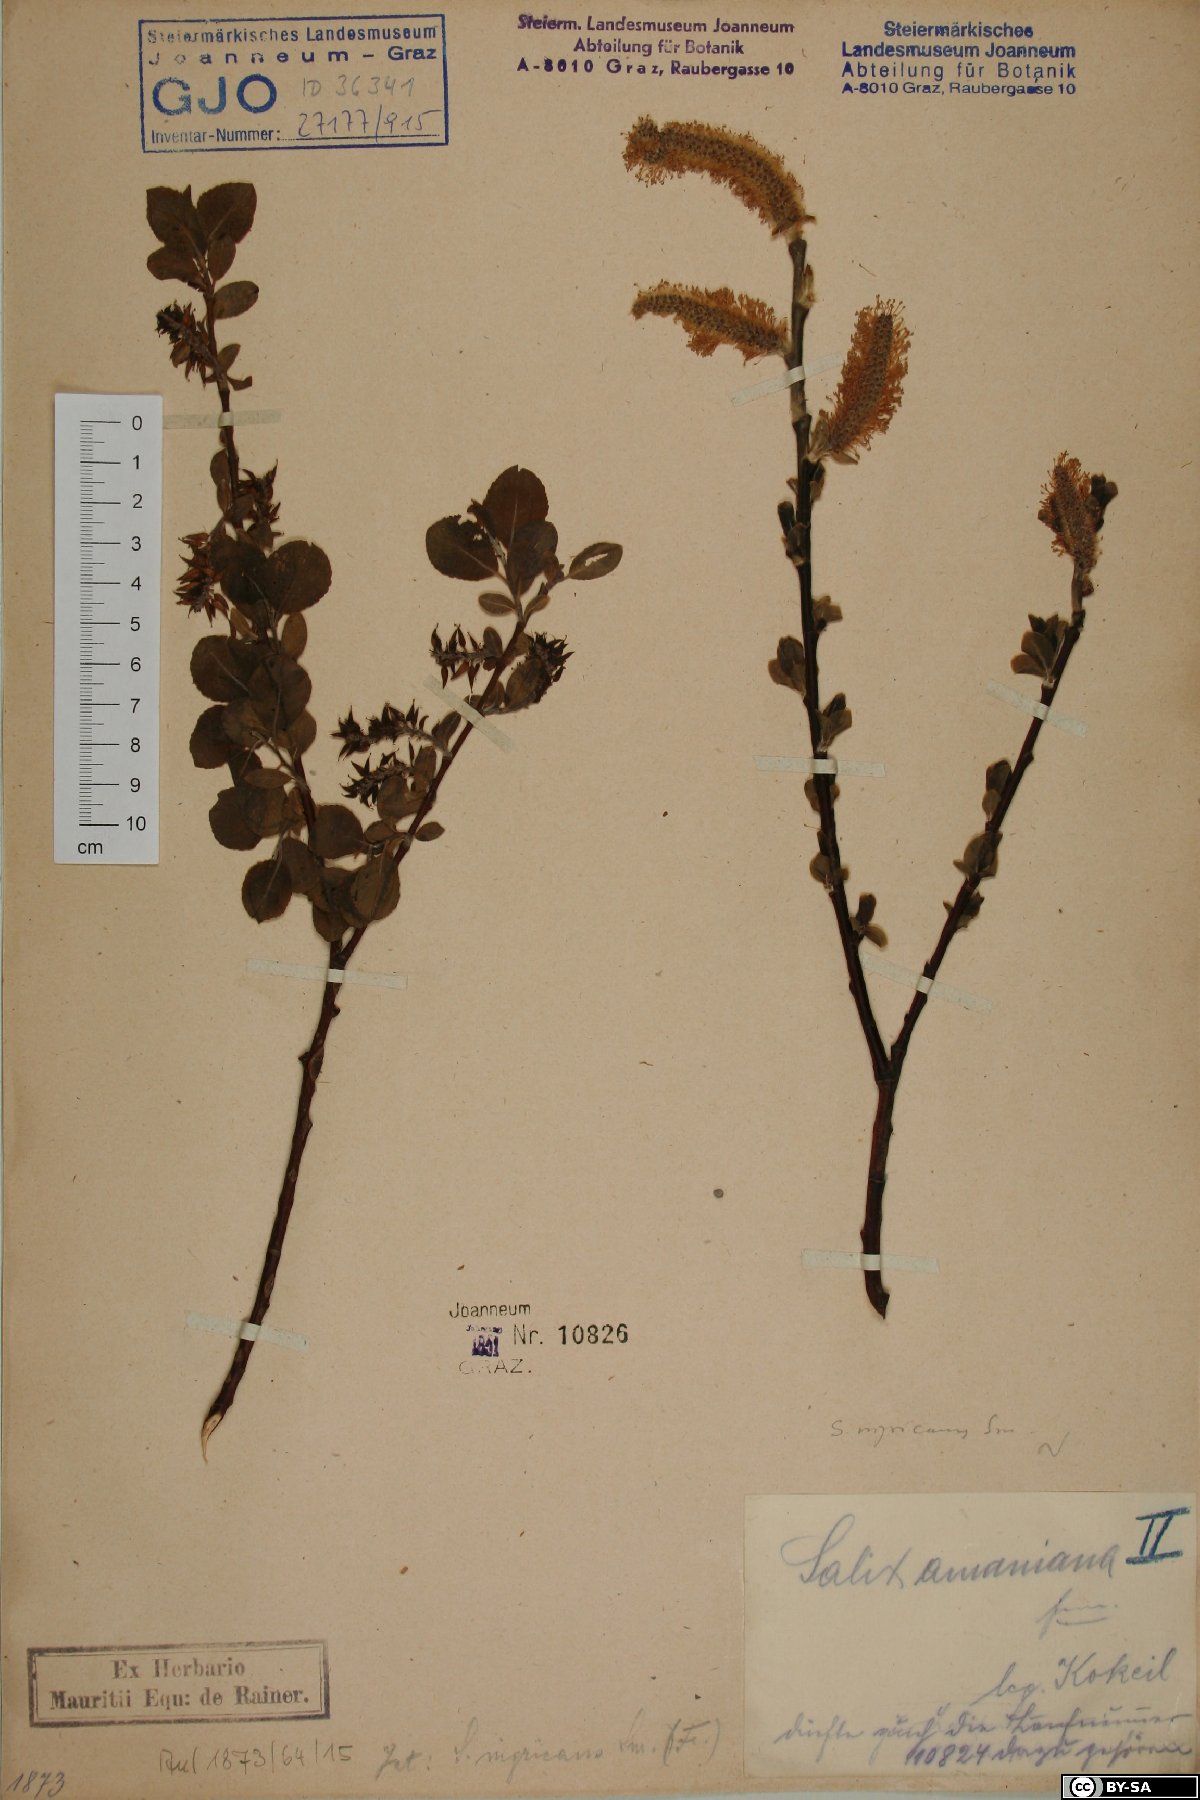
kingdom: Plantae
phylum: Tracheophyta
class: Magnoliopsida
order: Malpighiales
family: Salicaceae
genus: Salix
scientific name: Salix myrsinifolia
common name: Dark-leaved willow
